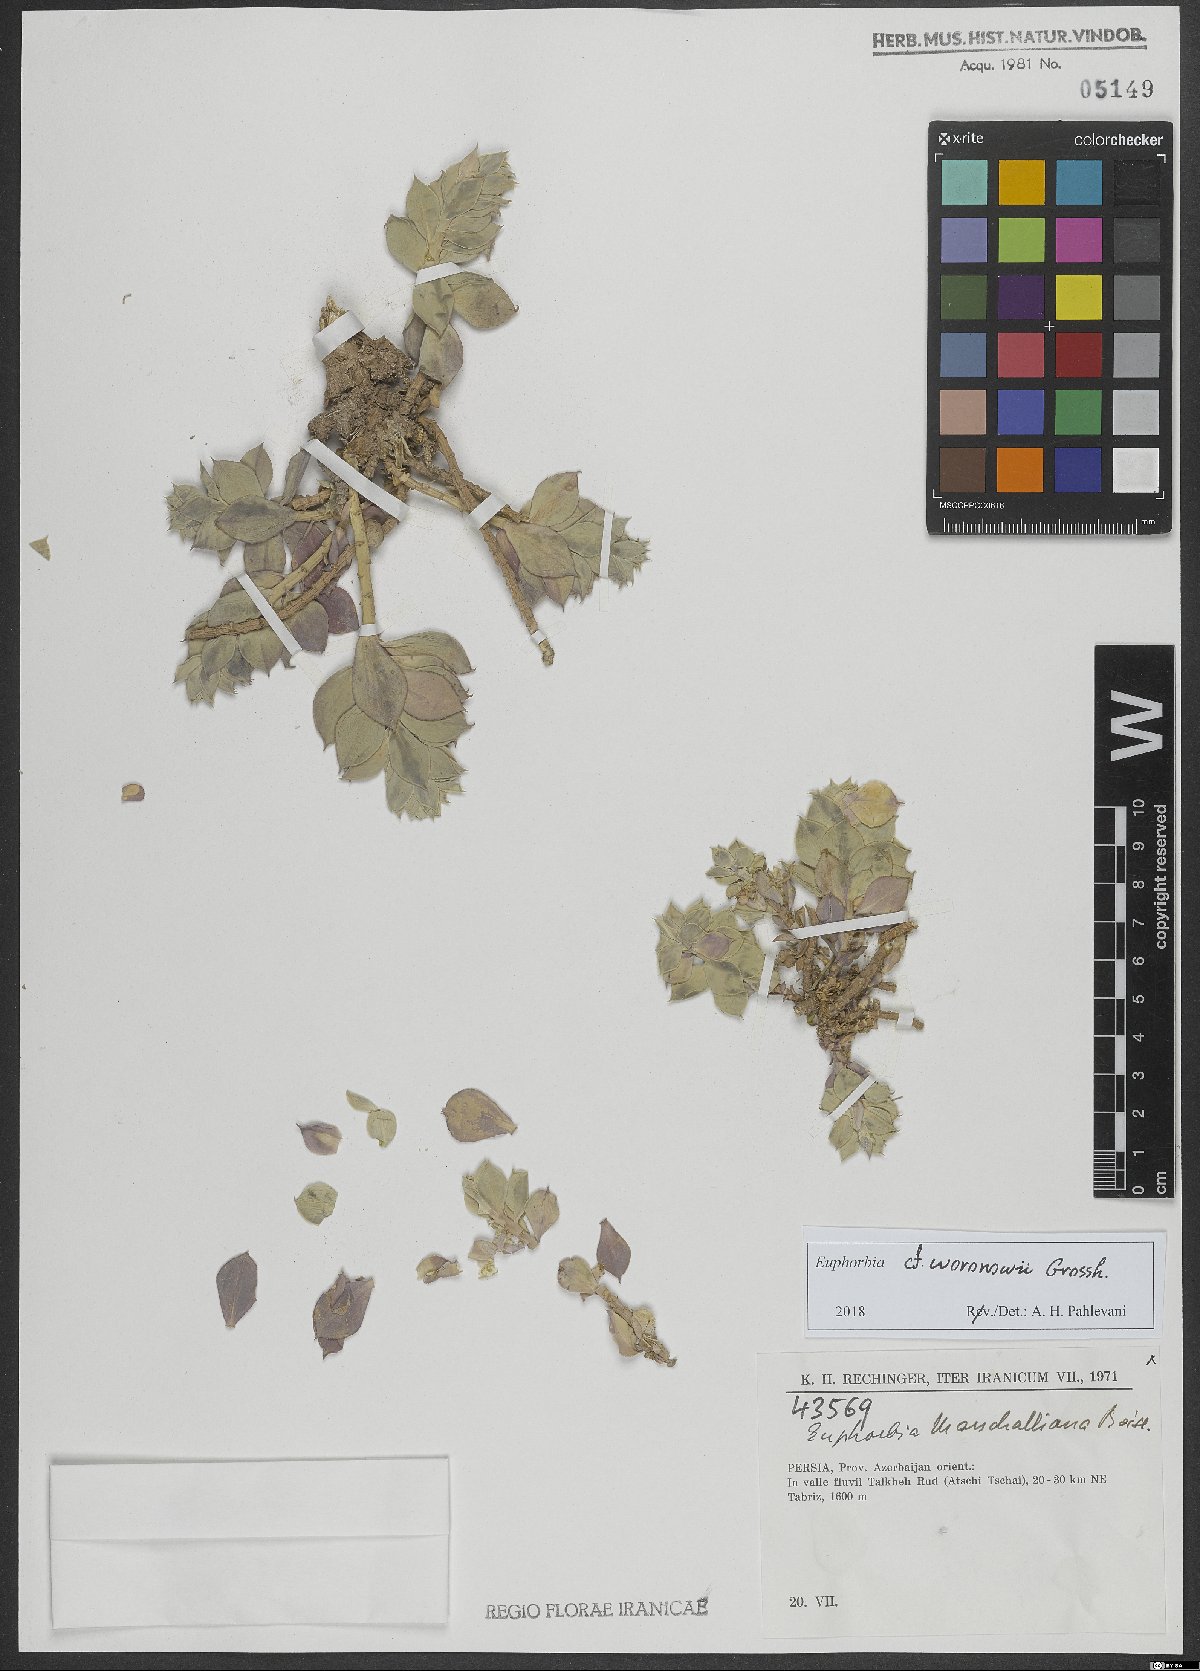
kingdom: Plantae
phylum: Tracheophyta
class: Magnoliopsida
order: Malpighiales
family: Euphorbiaceae
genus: Euphorbia
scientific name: Euphorbia marschalliana
